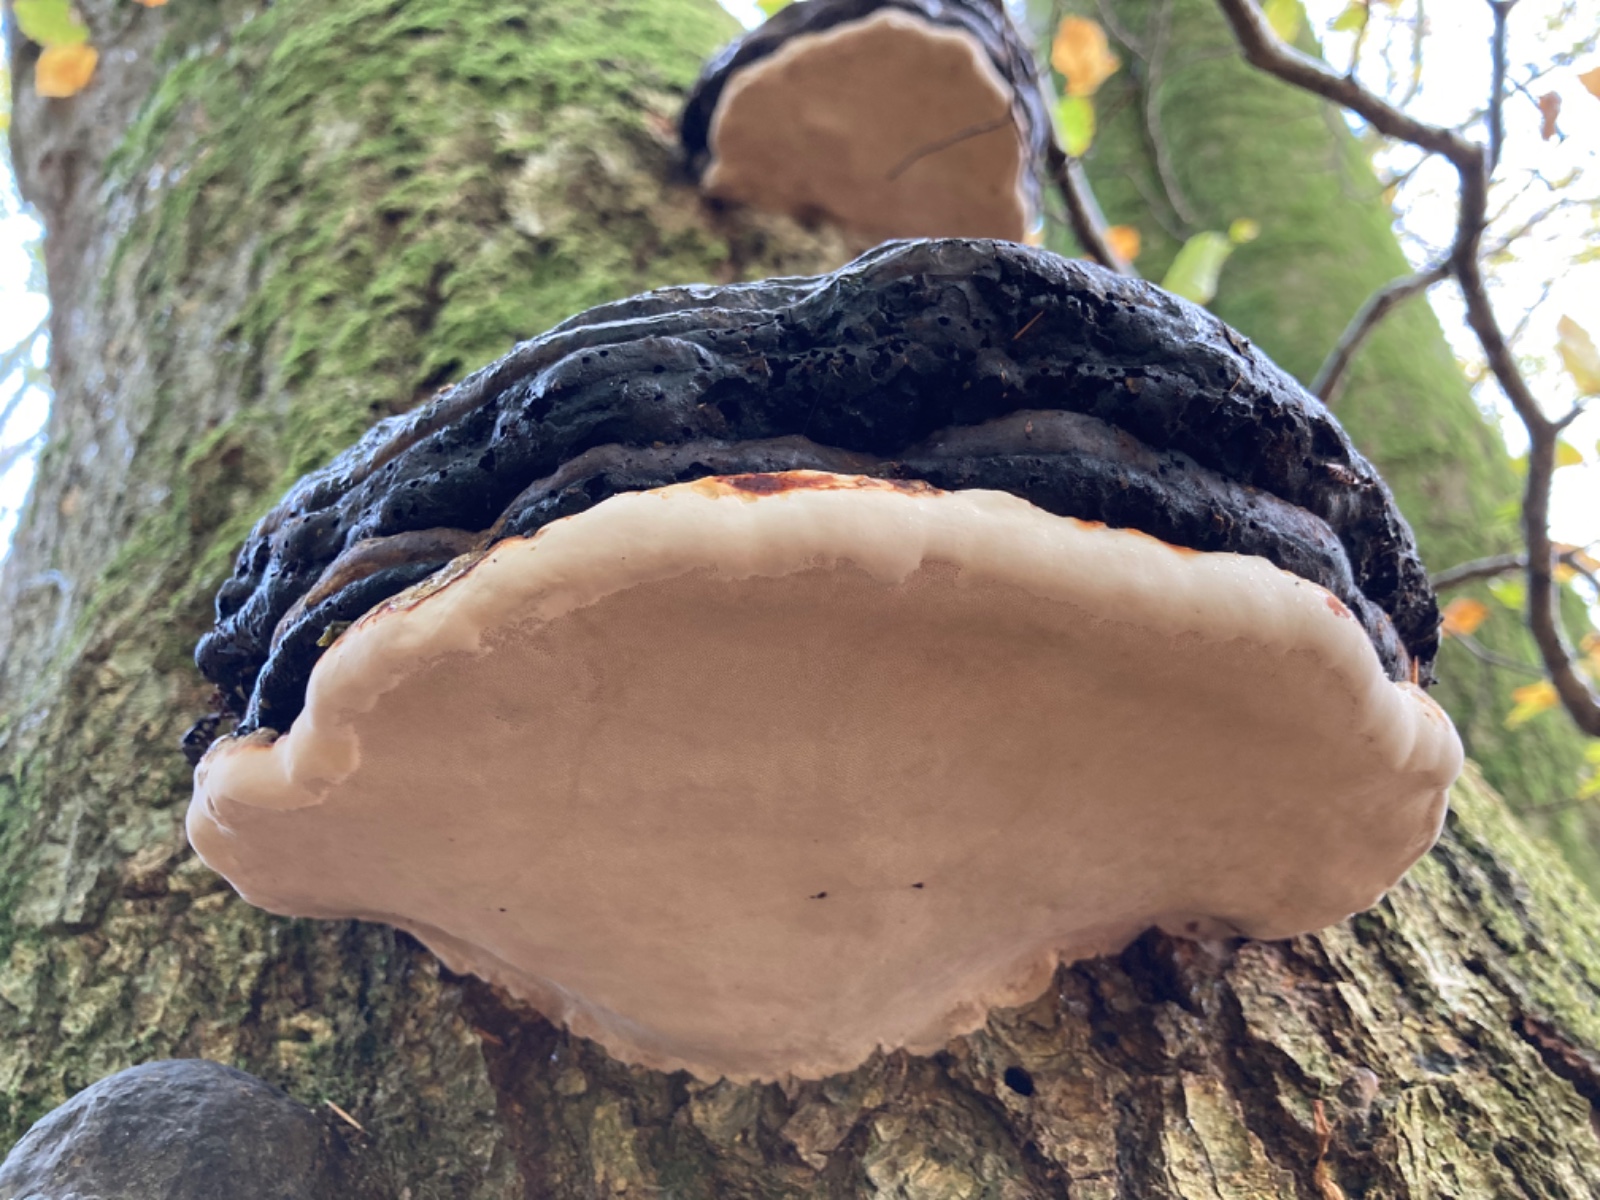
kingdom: Fungi
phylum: Basidiomycota
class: Agaricomycetes
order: Polyporales
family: Fomitopsidaceae
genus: Fomitopsis
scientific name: Fomitopsis pinicola
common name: randbæltet hovporesvamp
